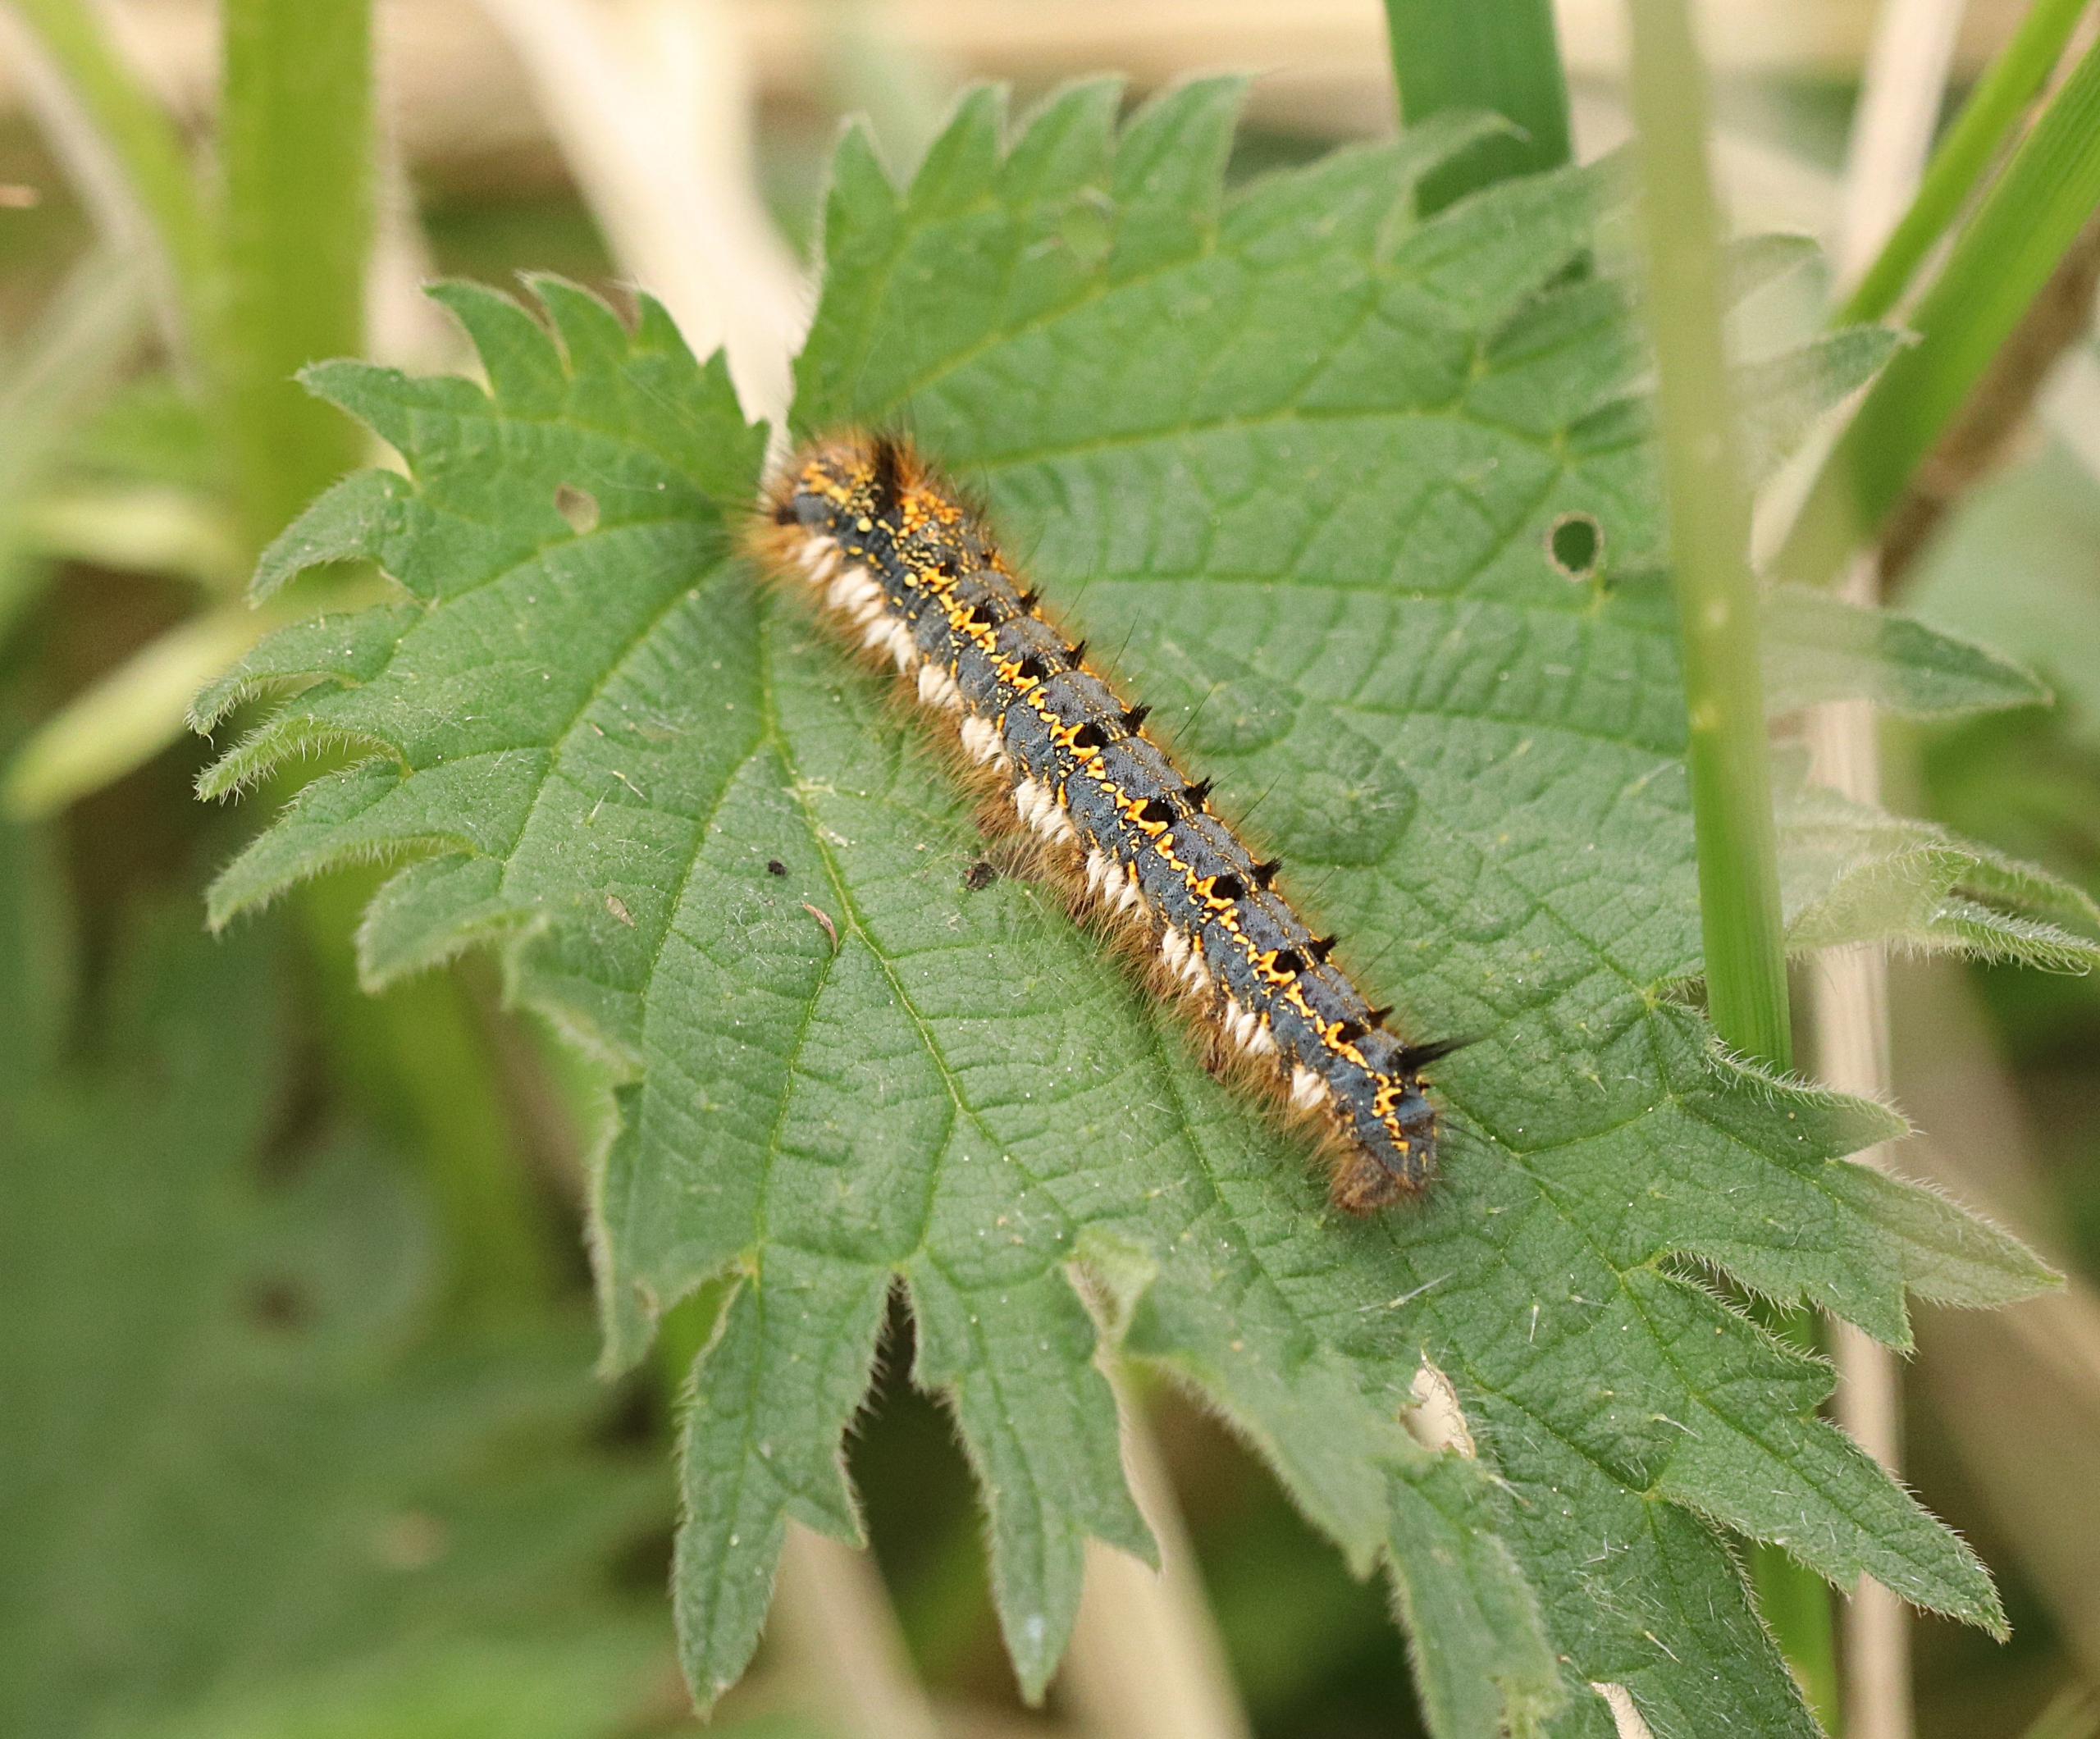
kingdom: Animalia
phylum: Arthropoda
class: Insecta
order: Lepidoptera
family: Lasiocampidae
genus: Euthrix
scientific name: Euthrix potatoria
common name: Græsspinder
